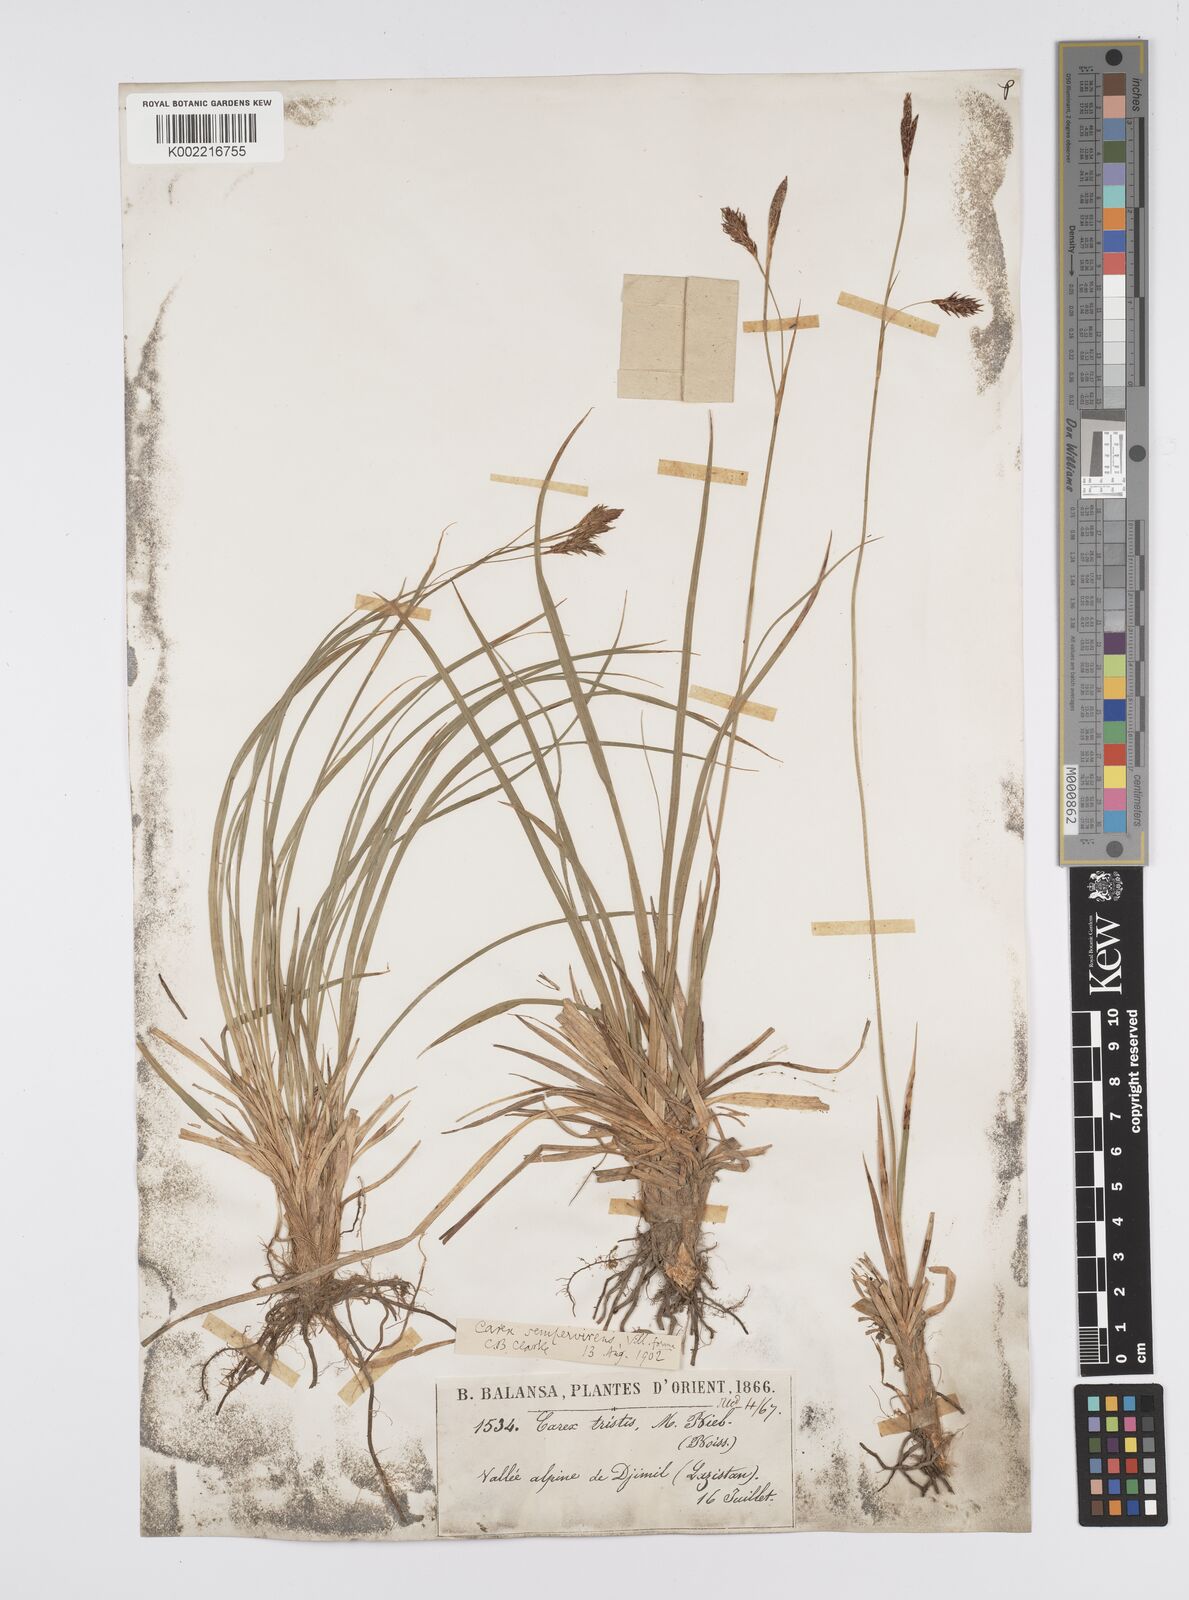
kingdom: Plantae
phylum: Tracheophyta
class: Liliopsida
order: Poales
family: Cyperaceae
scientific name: Cyperaceae
